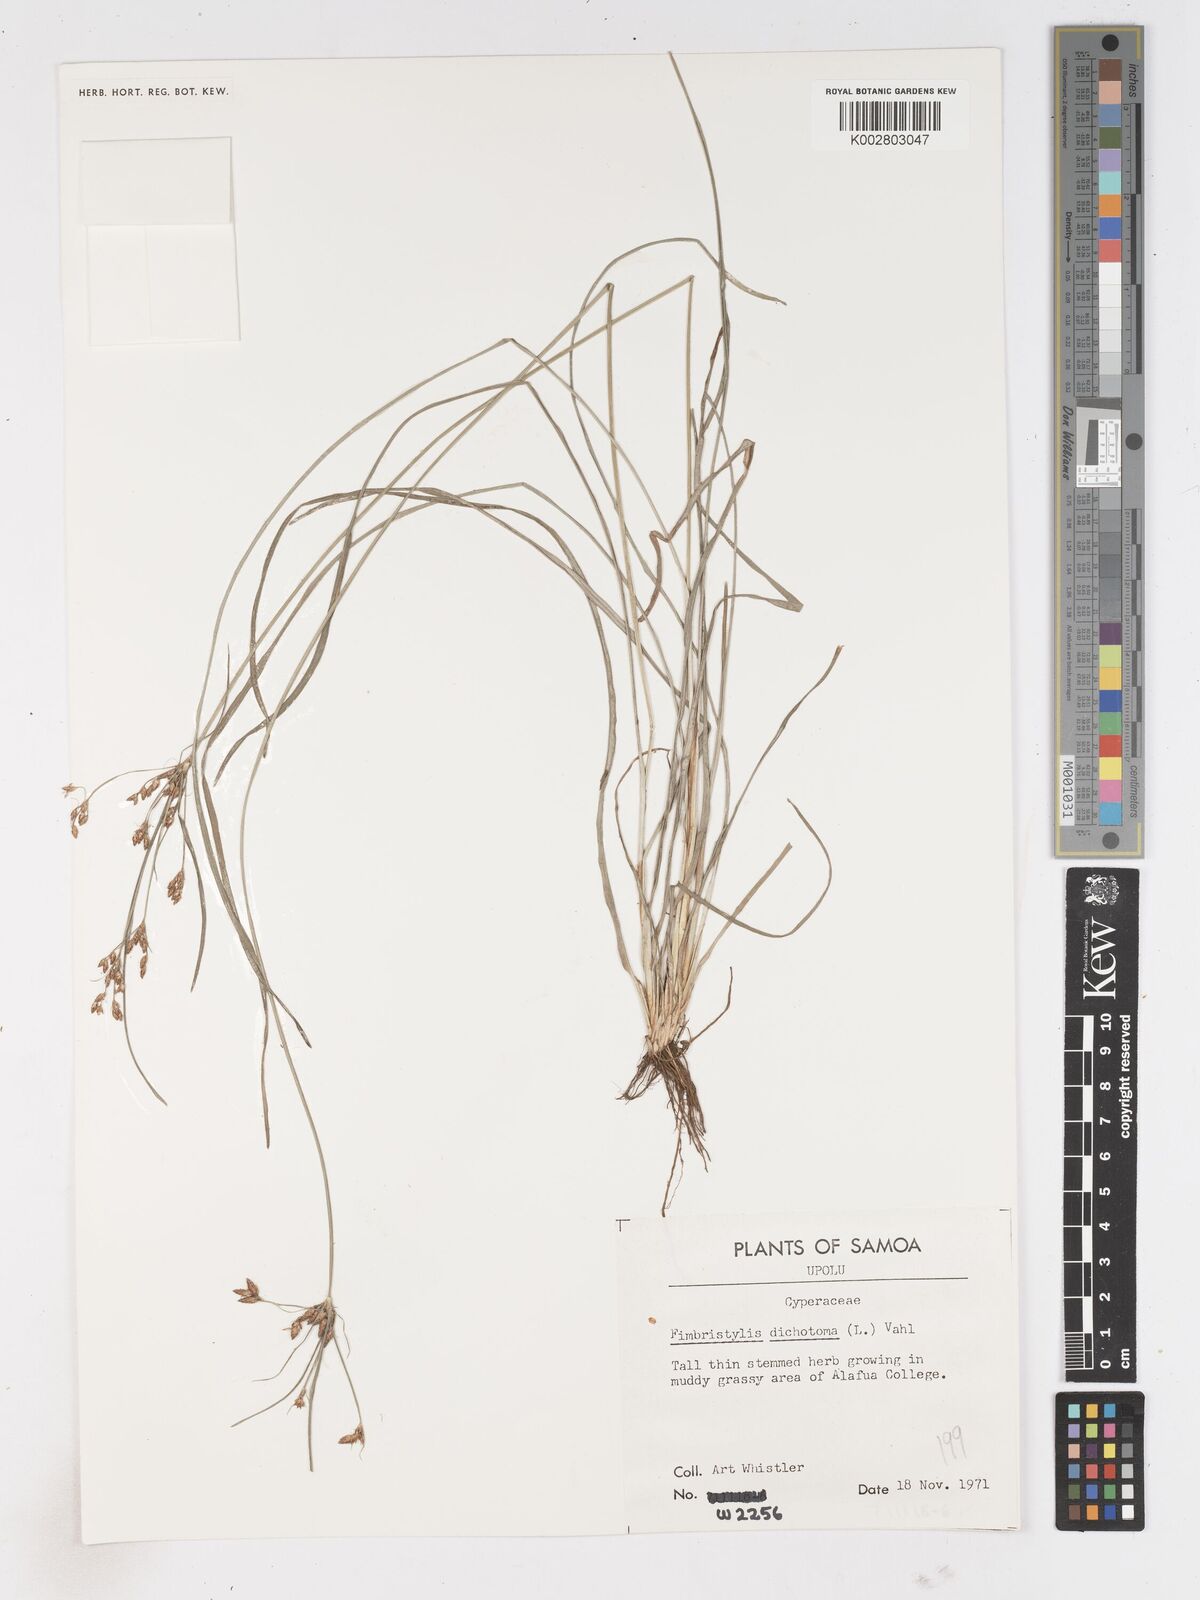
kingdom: Plantae
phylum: Tracheophyta
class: Liliopsida
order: Poales
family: Cyperaceae
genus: Fimbristylis
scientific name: Fimbristylis dichotoma
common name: Forked fimbry
